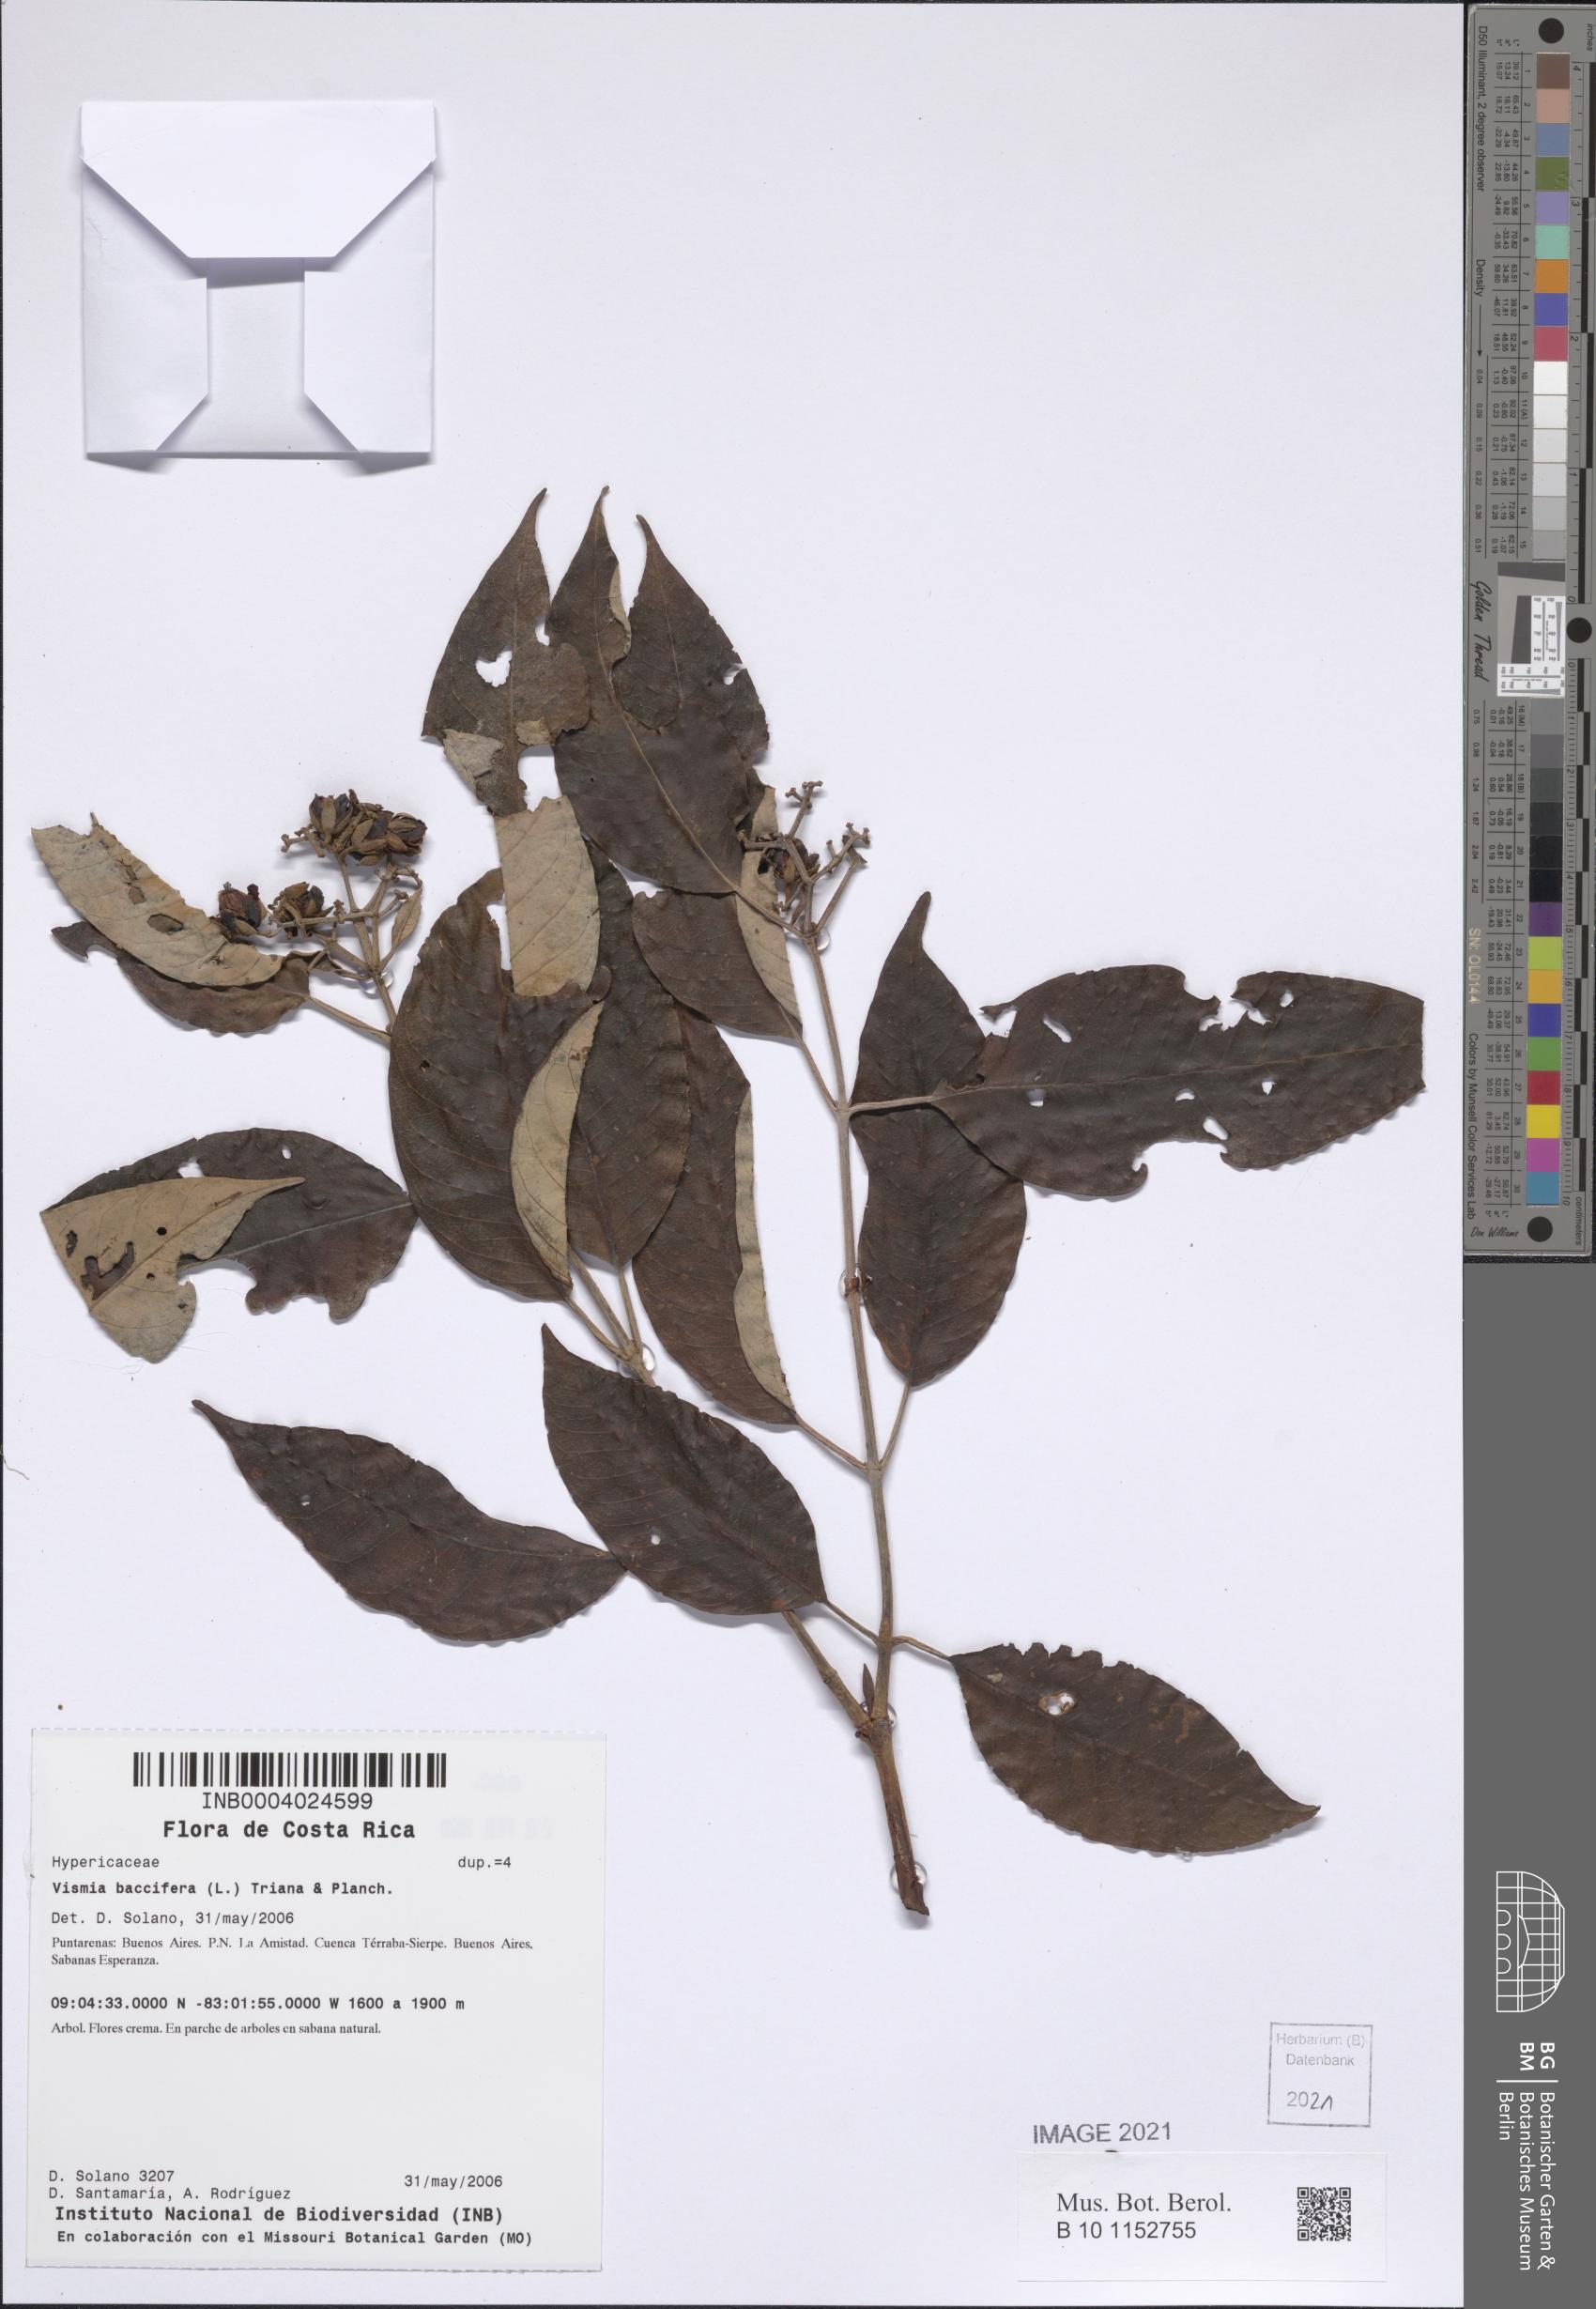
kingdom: Plantae
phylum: Tracheophyta
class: Magnoliopsida
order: Malpighiales
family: Hypericaceae
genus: Vismia
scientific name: Vismia baccifera
